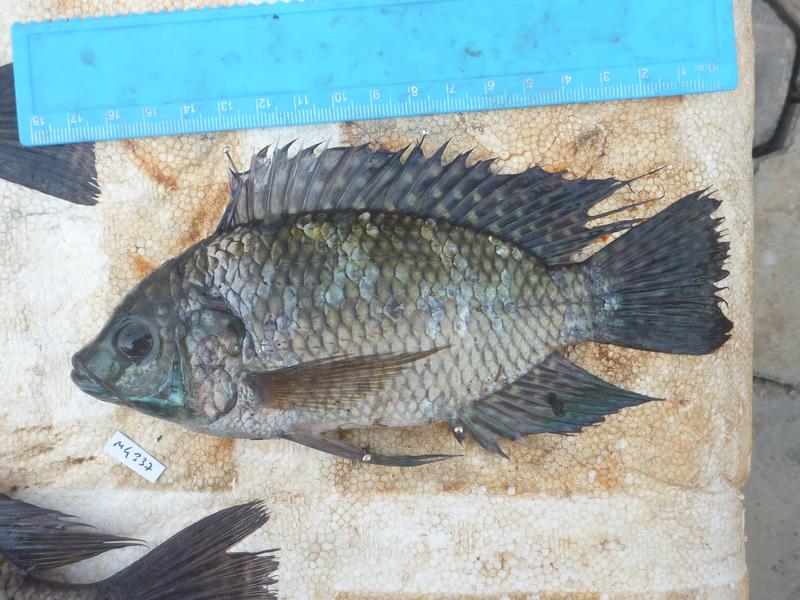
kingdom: Animalia
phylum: Chordata
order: Perciformes
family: Cichlidae
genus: Oreochromis
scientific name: Oreochromis leucostictus
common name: Blue spotted tilapia
